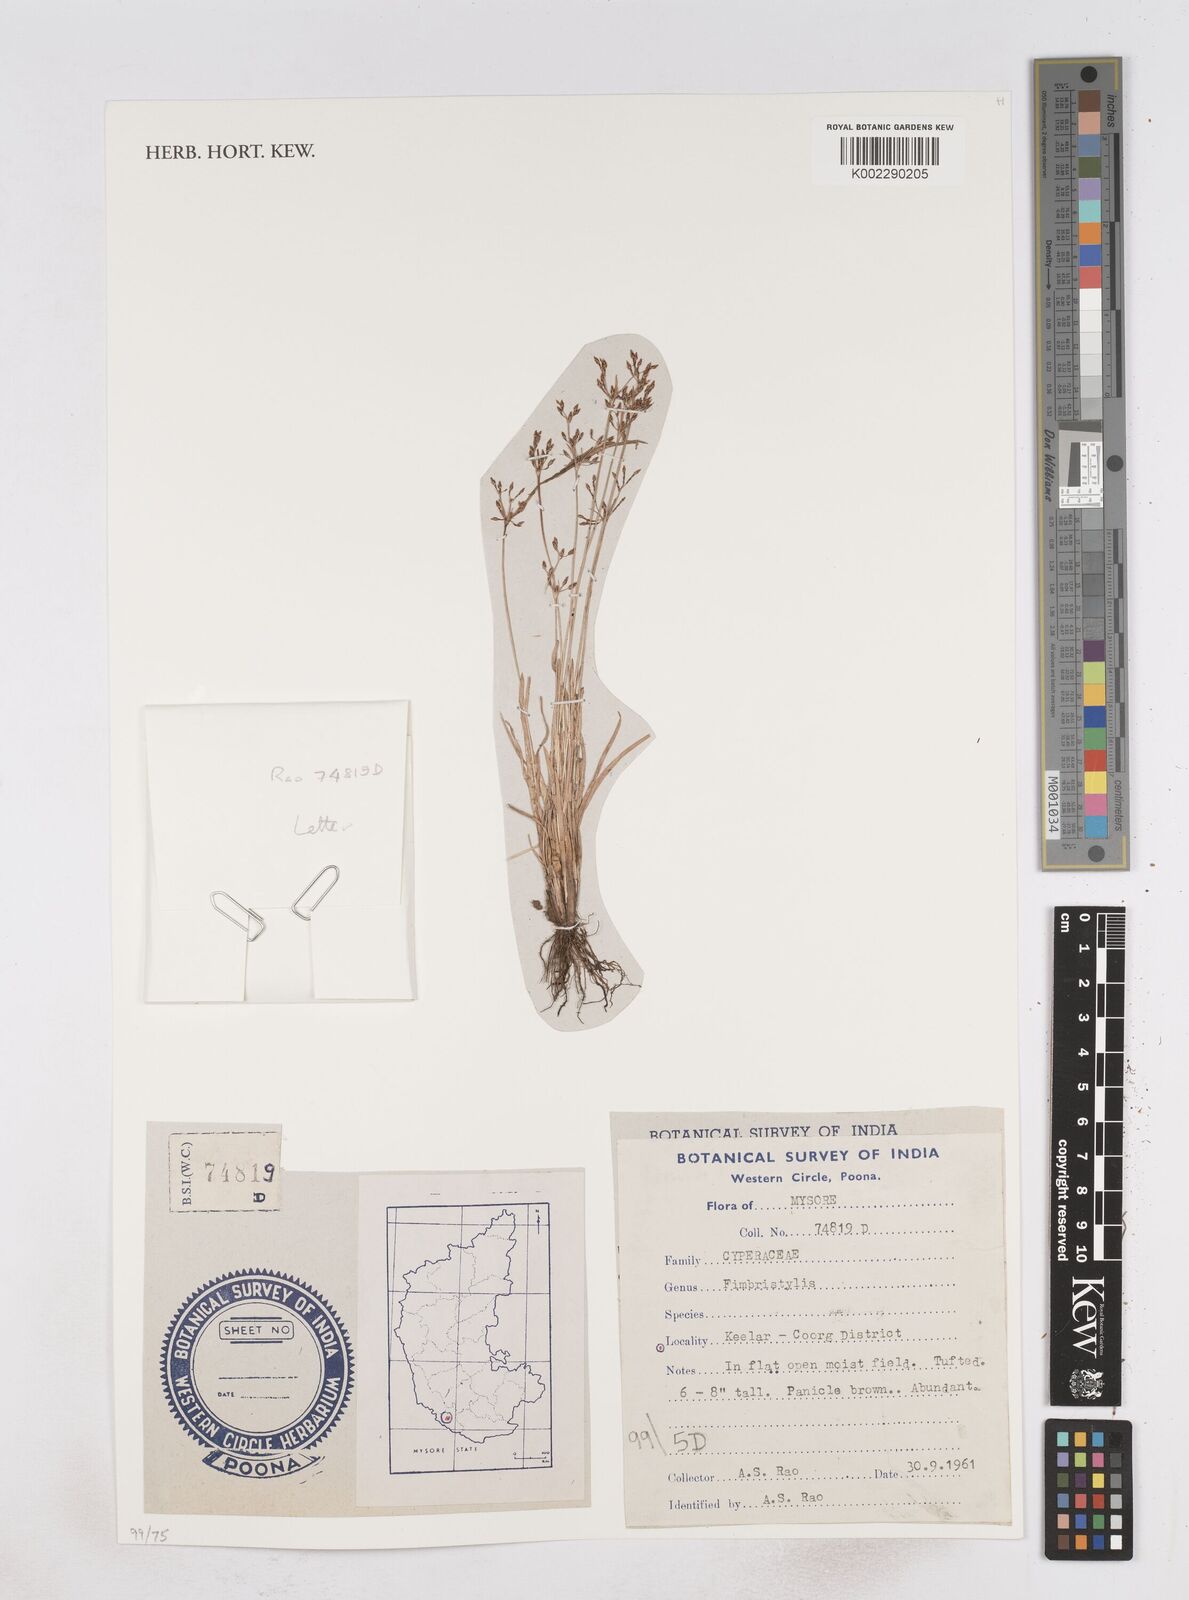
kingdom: Plantae
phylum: Tracheophyta
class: Liliopsida
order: Poales
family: Cyperaceae
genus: Fimbristylis
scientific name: Fimbristylis
